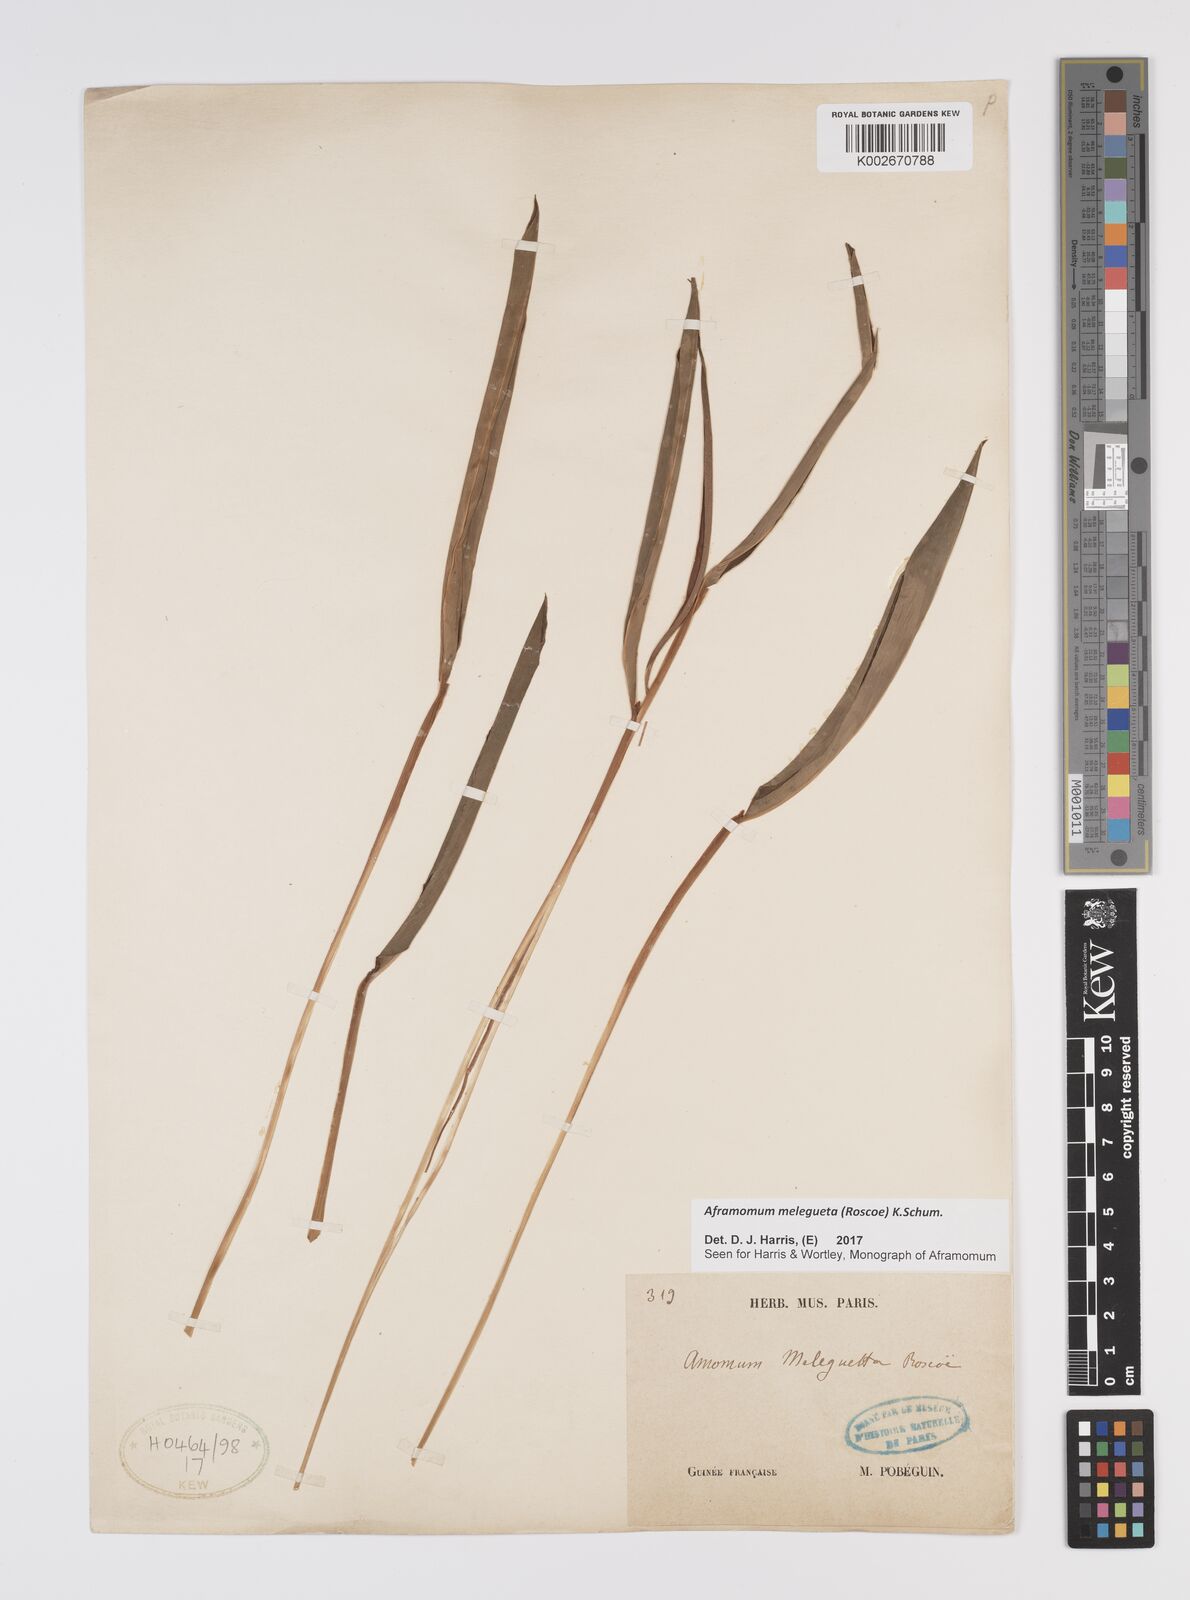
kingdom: Plantae
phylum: Tracheophyta
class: Liliopsida
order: Zingiberales
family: Zingiberaceae
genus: Aframomum
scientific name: Aframomum melegueta
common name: Grains of paradise
